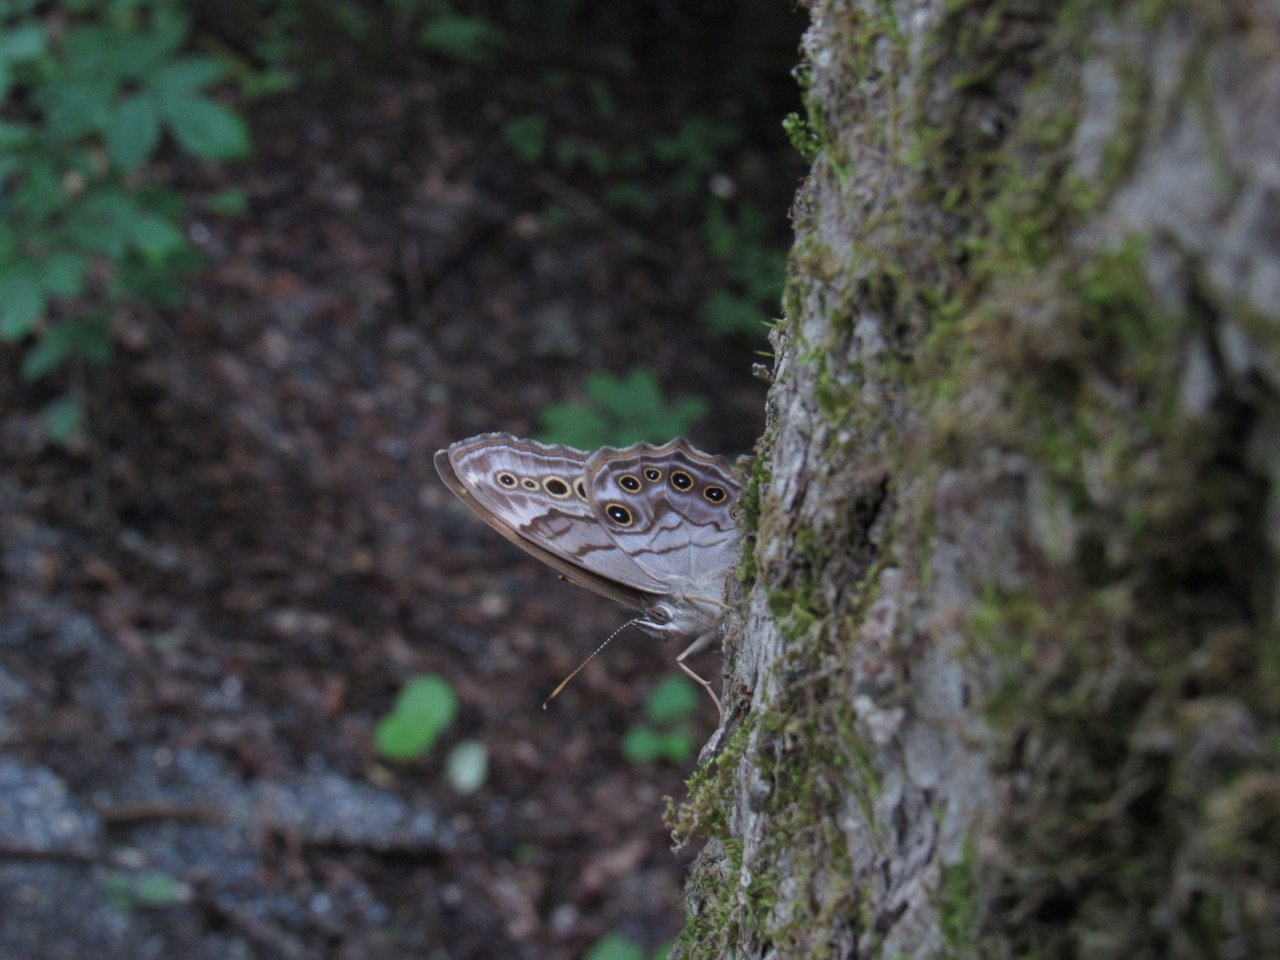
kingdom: Animalia
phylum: Arthropoda
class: Insecta
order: Lepidoptera
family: Nymphalidae
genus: Lethe
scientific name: Lethe anthedon
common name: Northern Pearly-Eye
